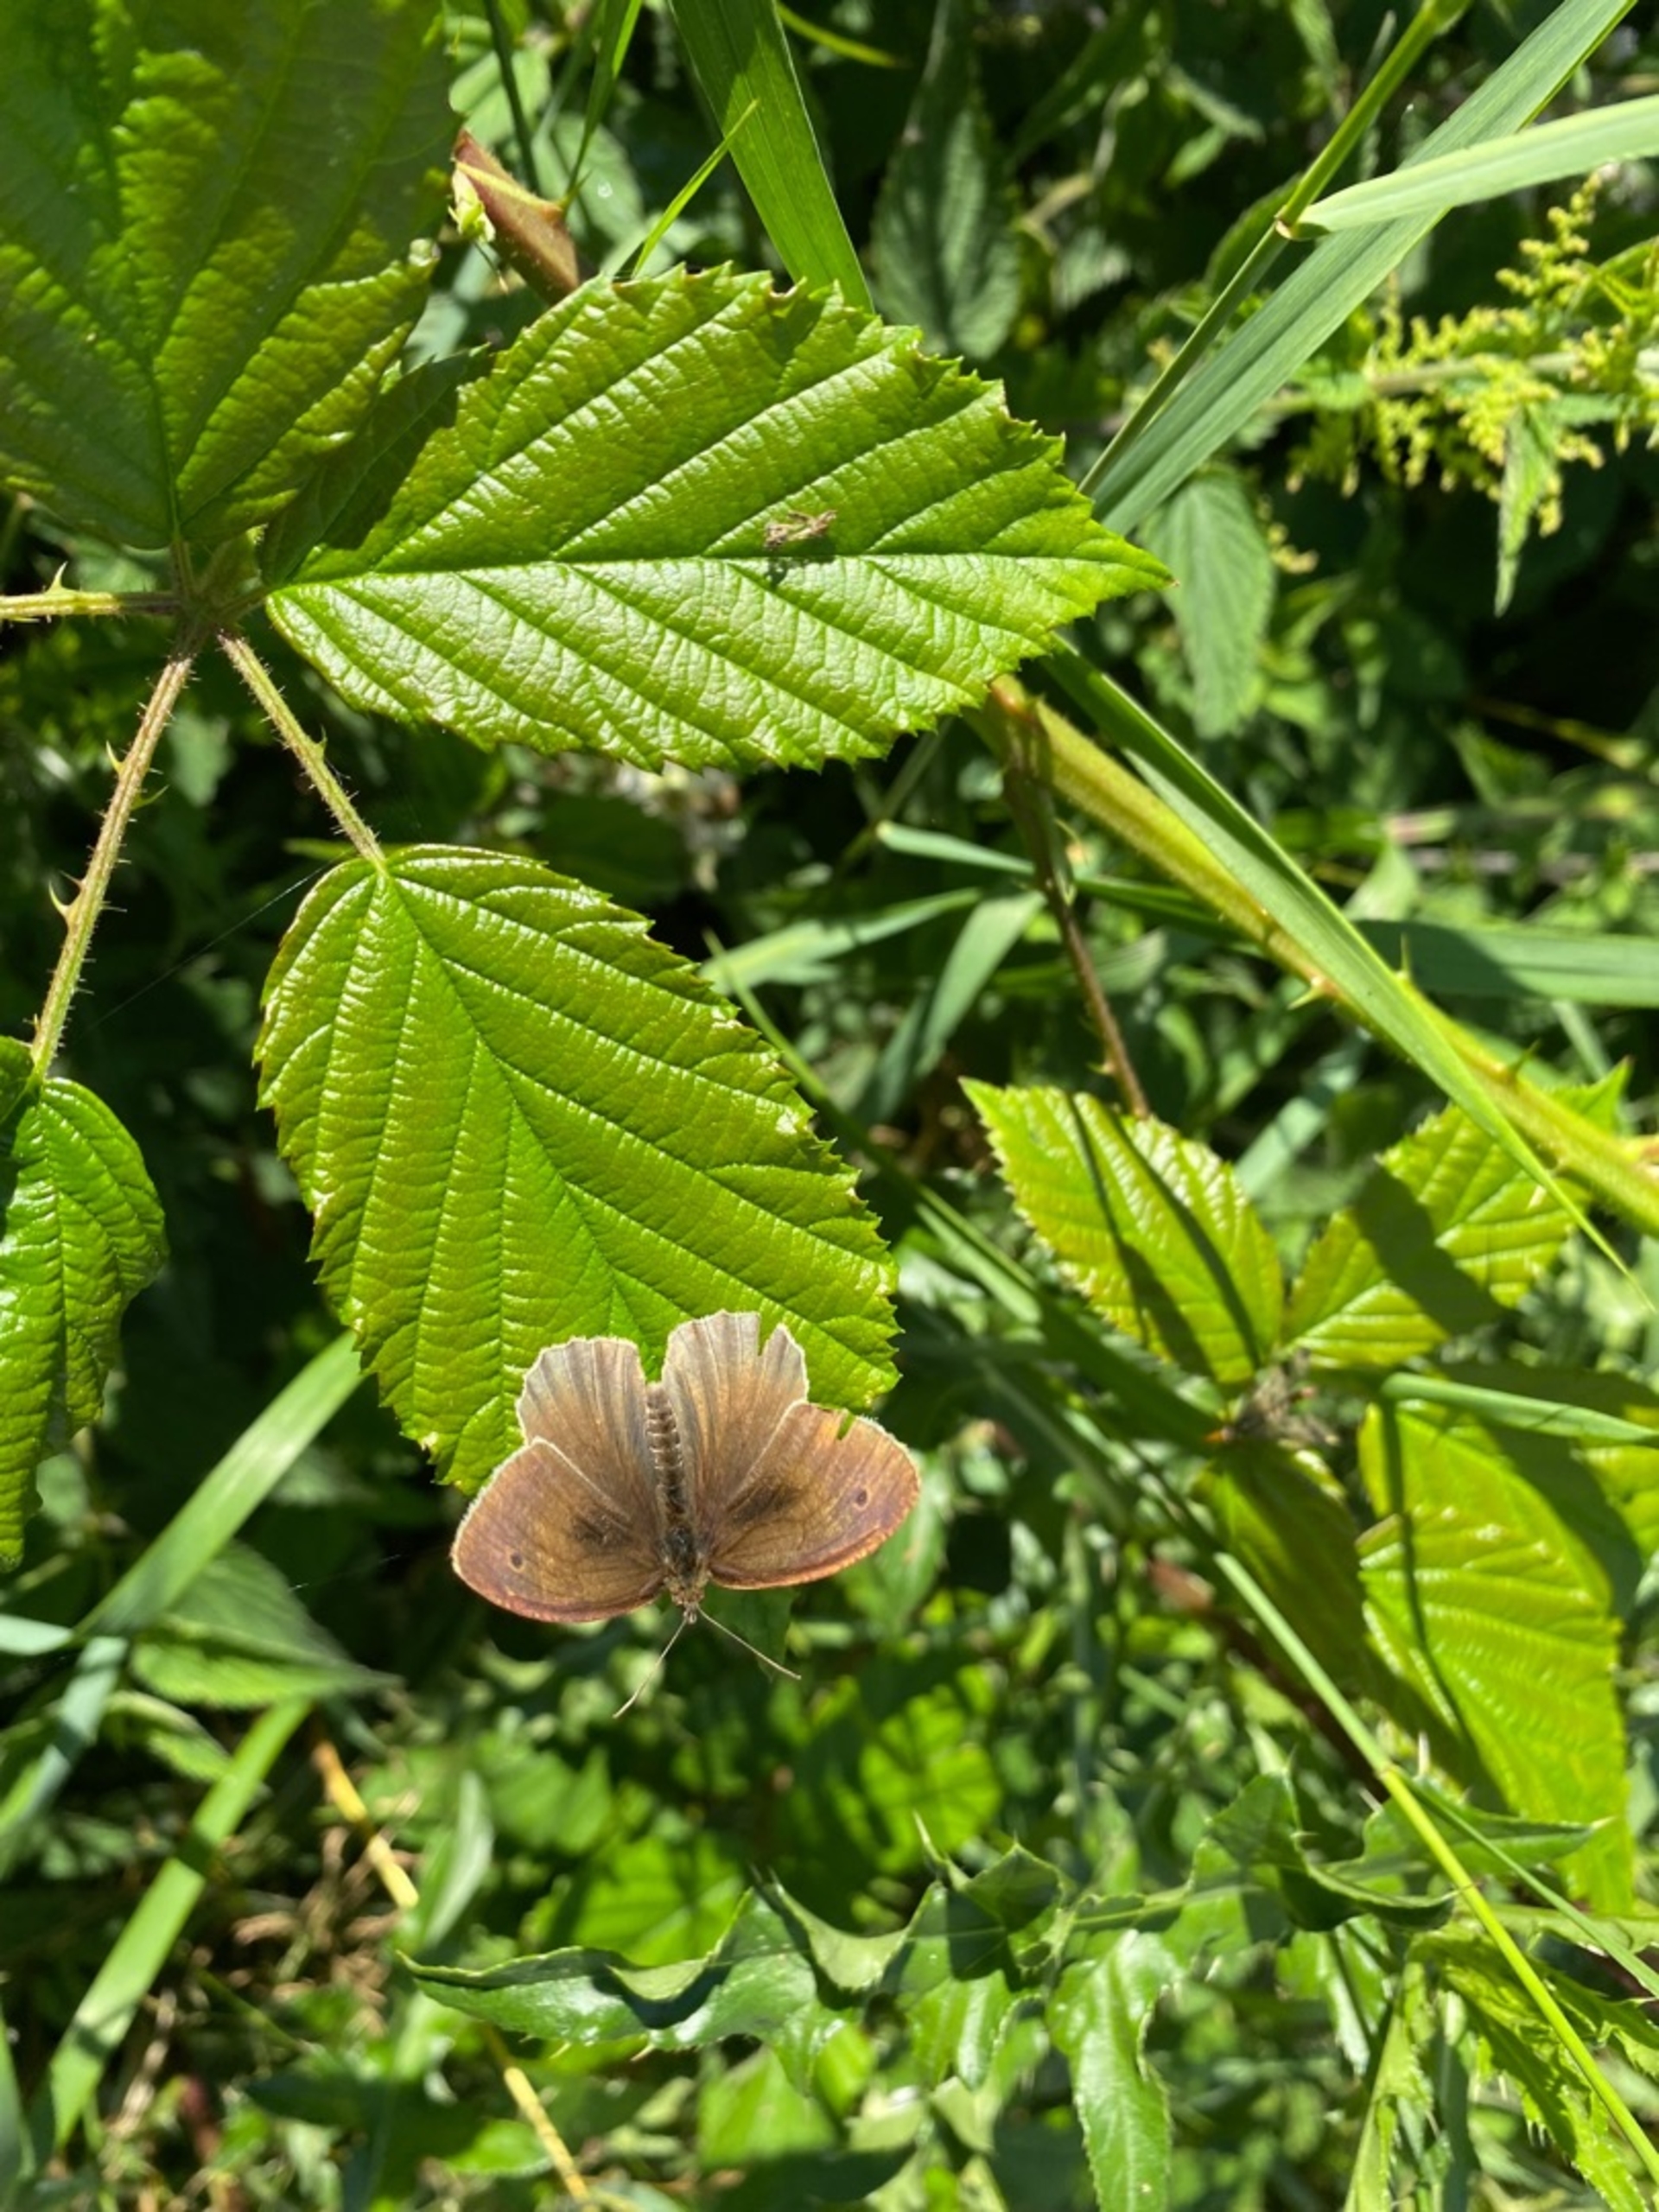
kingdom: Animalia
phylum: Arthropoda
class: Insecta
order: Lepidoptera
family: Nymphalidae
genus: Aphantopus
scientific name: Aphantopus hyperantus
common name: Engrandøje
